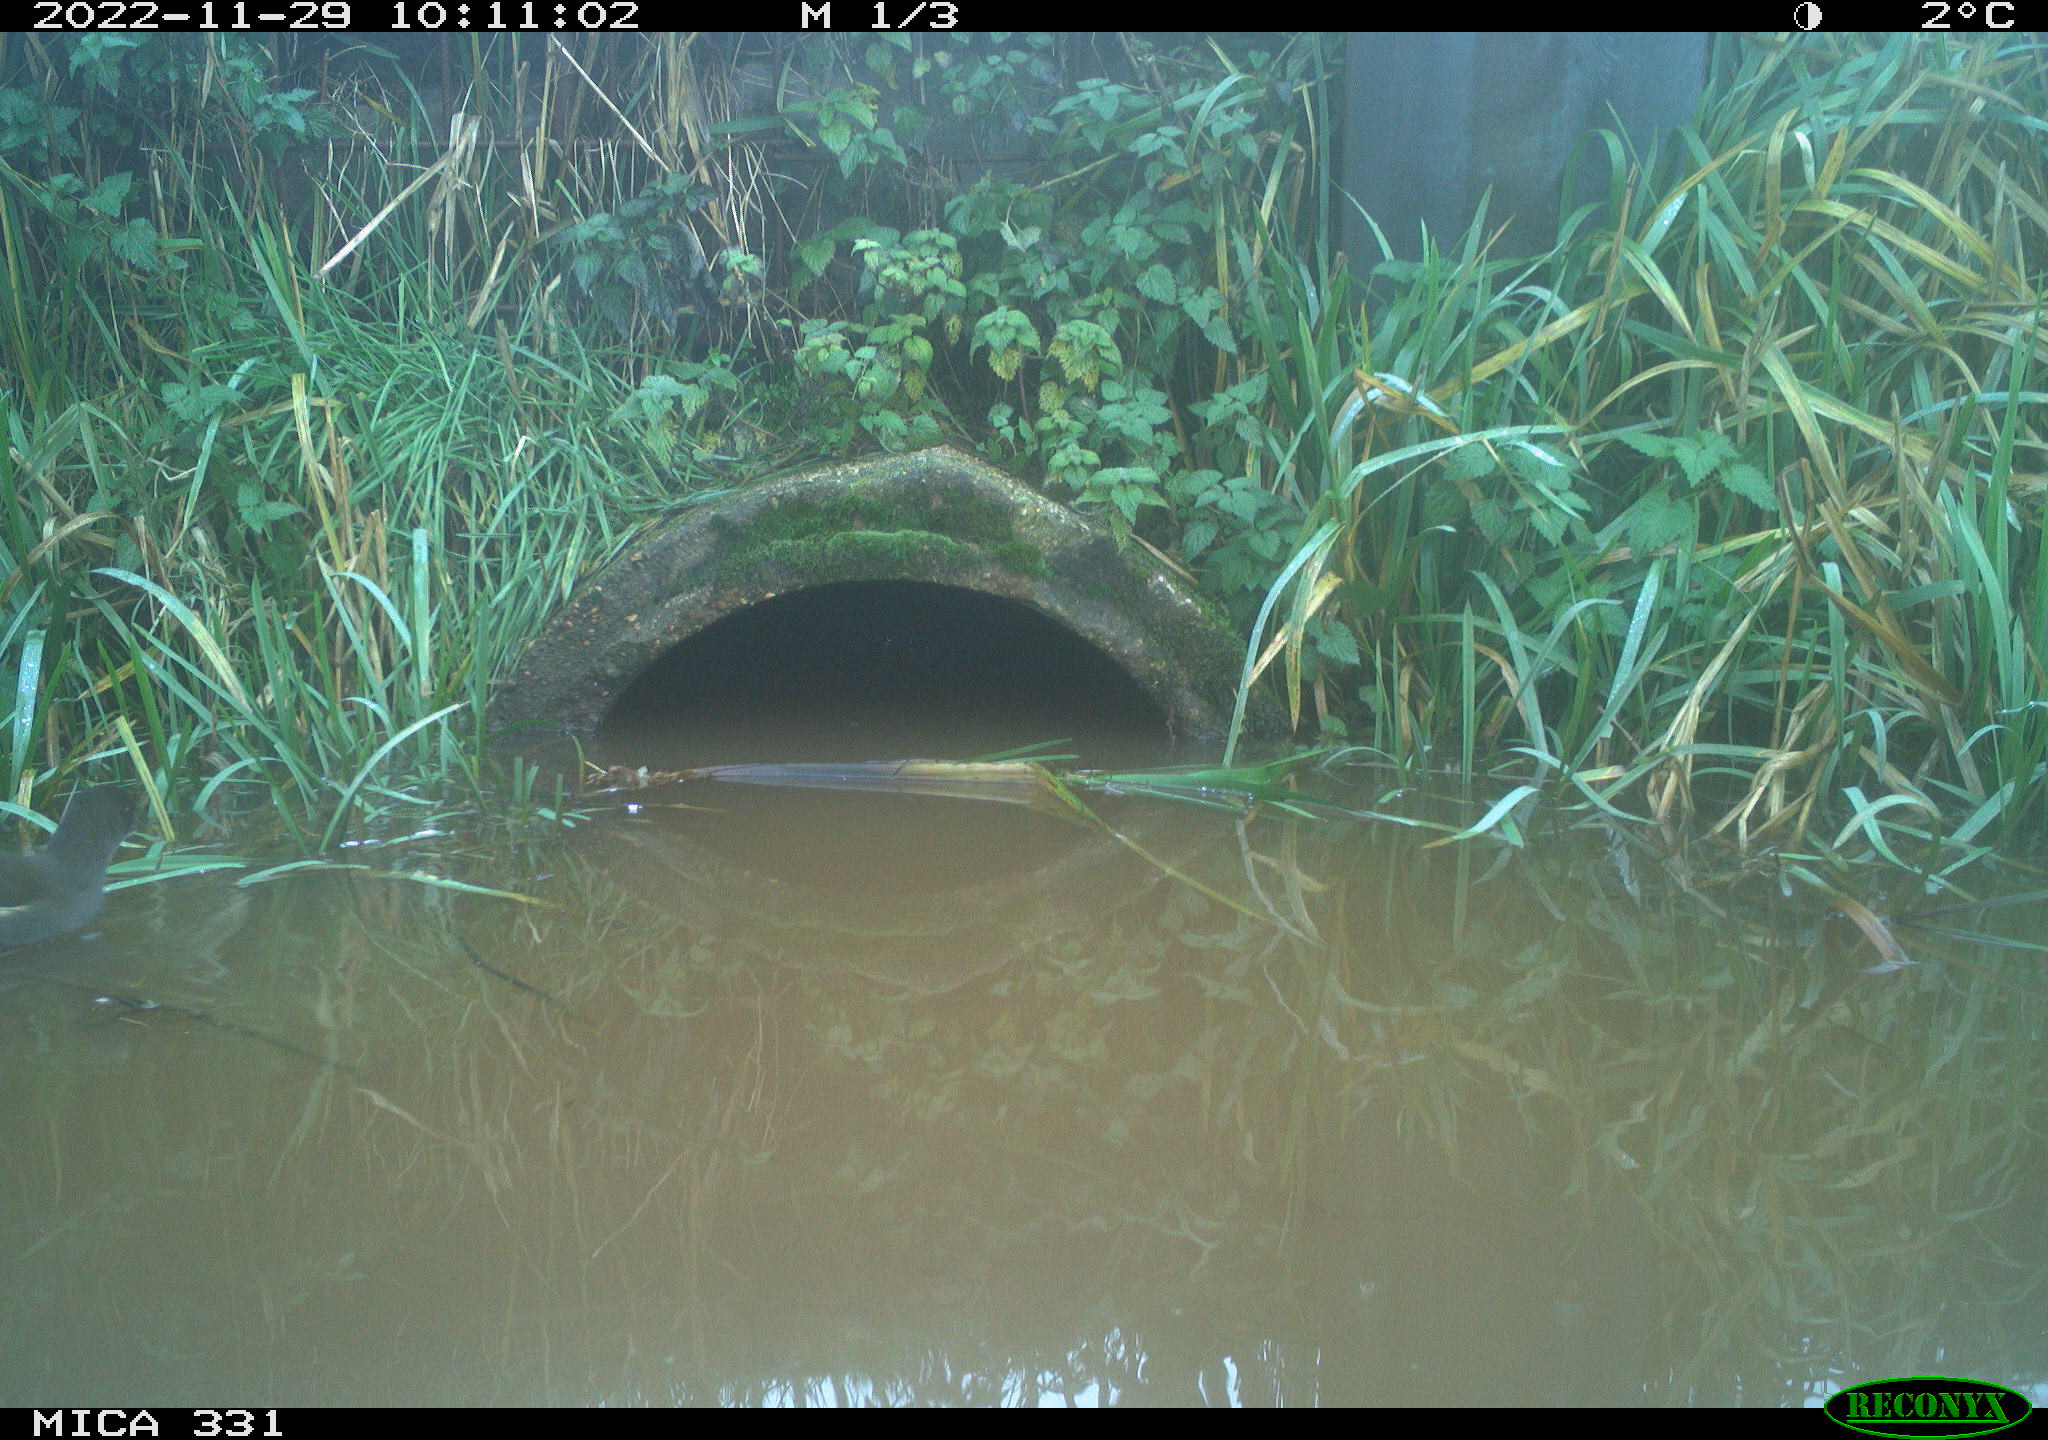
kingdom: Animalia
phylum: Chordata
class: Aves
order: Gruiformes
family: Rallidae
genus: Gallinula
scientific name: Gallinula chloropus
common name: Common moorhen
